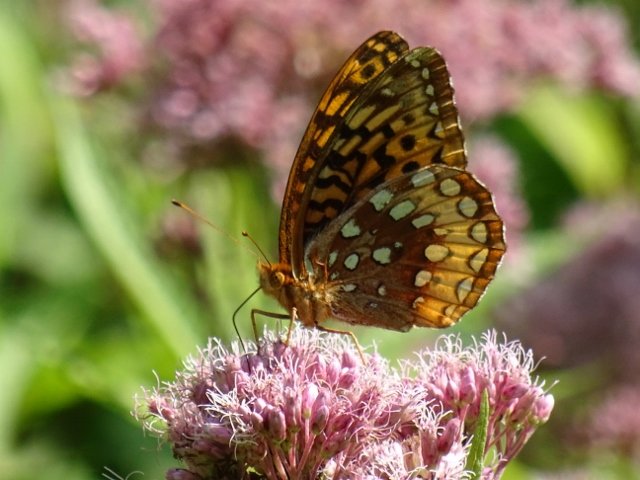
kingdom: Animalia
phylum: Arthropoda
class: Insecta
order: Lepidoptera
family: Nymphalidae
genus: Speyeria
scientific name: Speyeria cybele
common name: Great Spangled Fritillary
